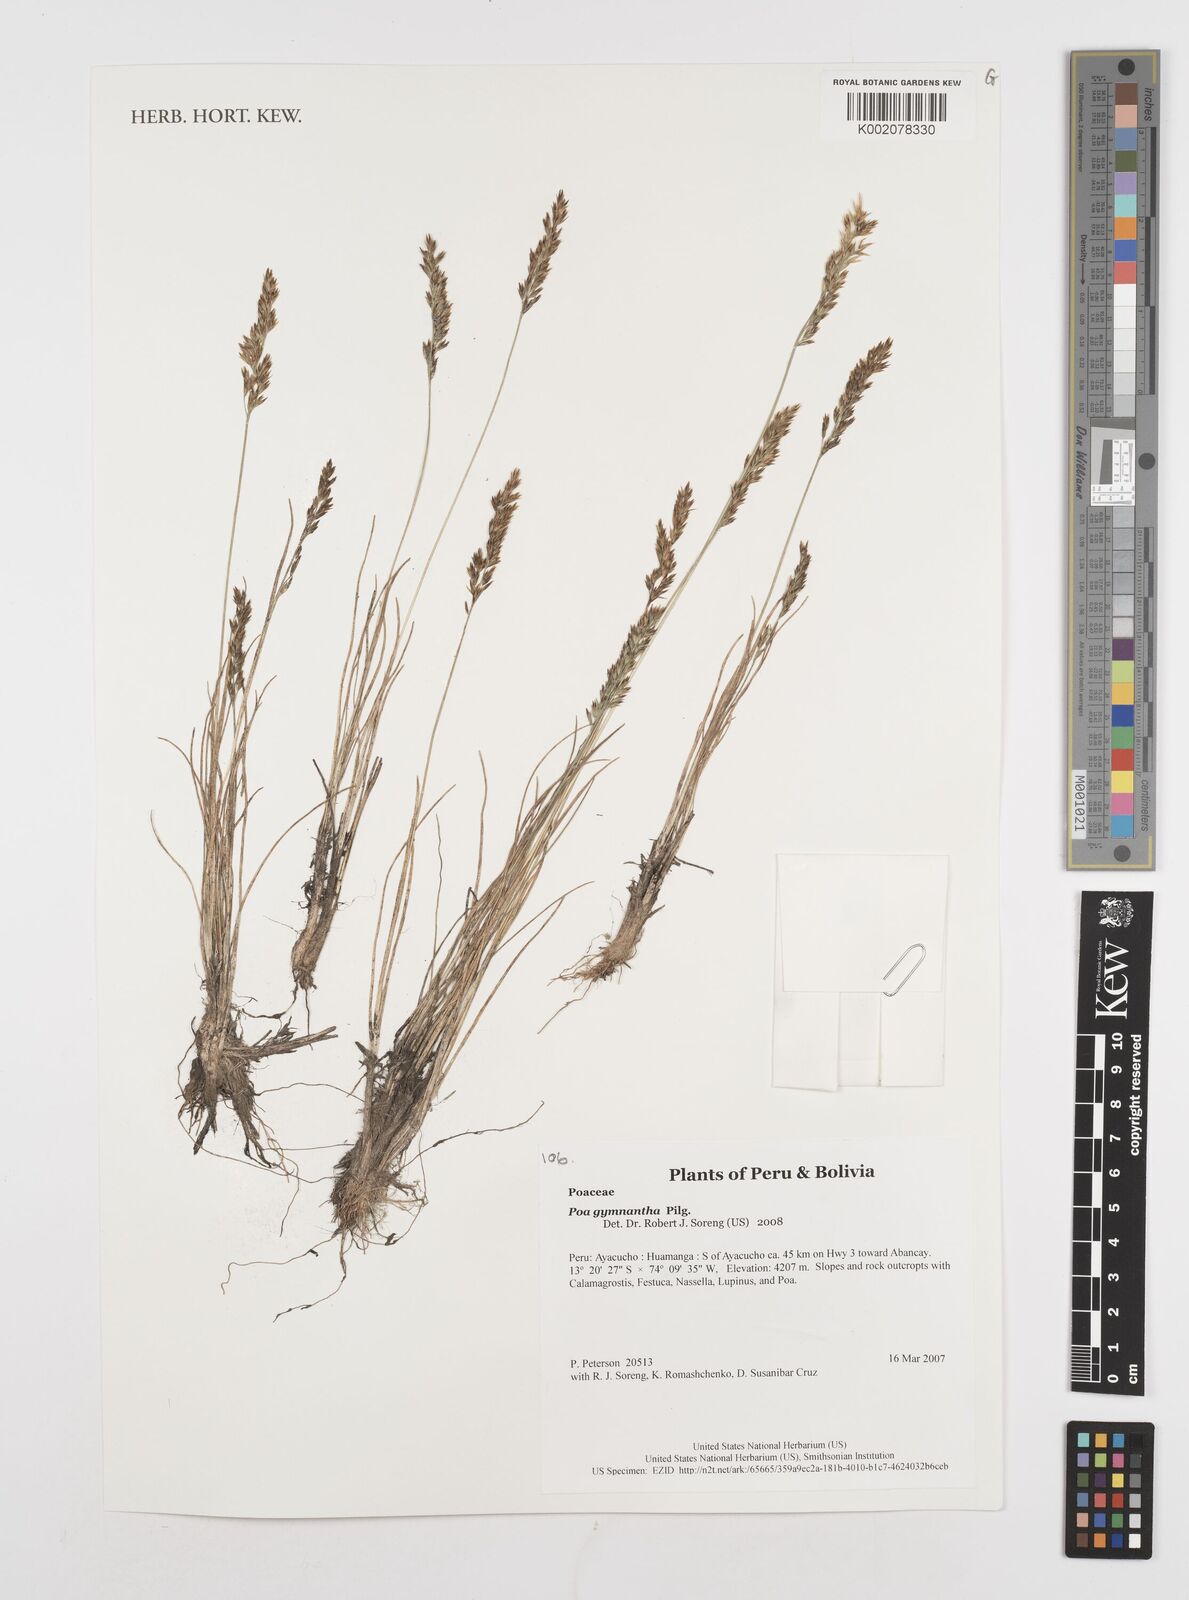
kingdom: Plantae
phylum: Tracheophyta
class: Liliopsida
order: Poales
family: Poaceae
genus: Poa
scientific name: Poa gymnantha
